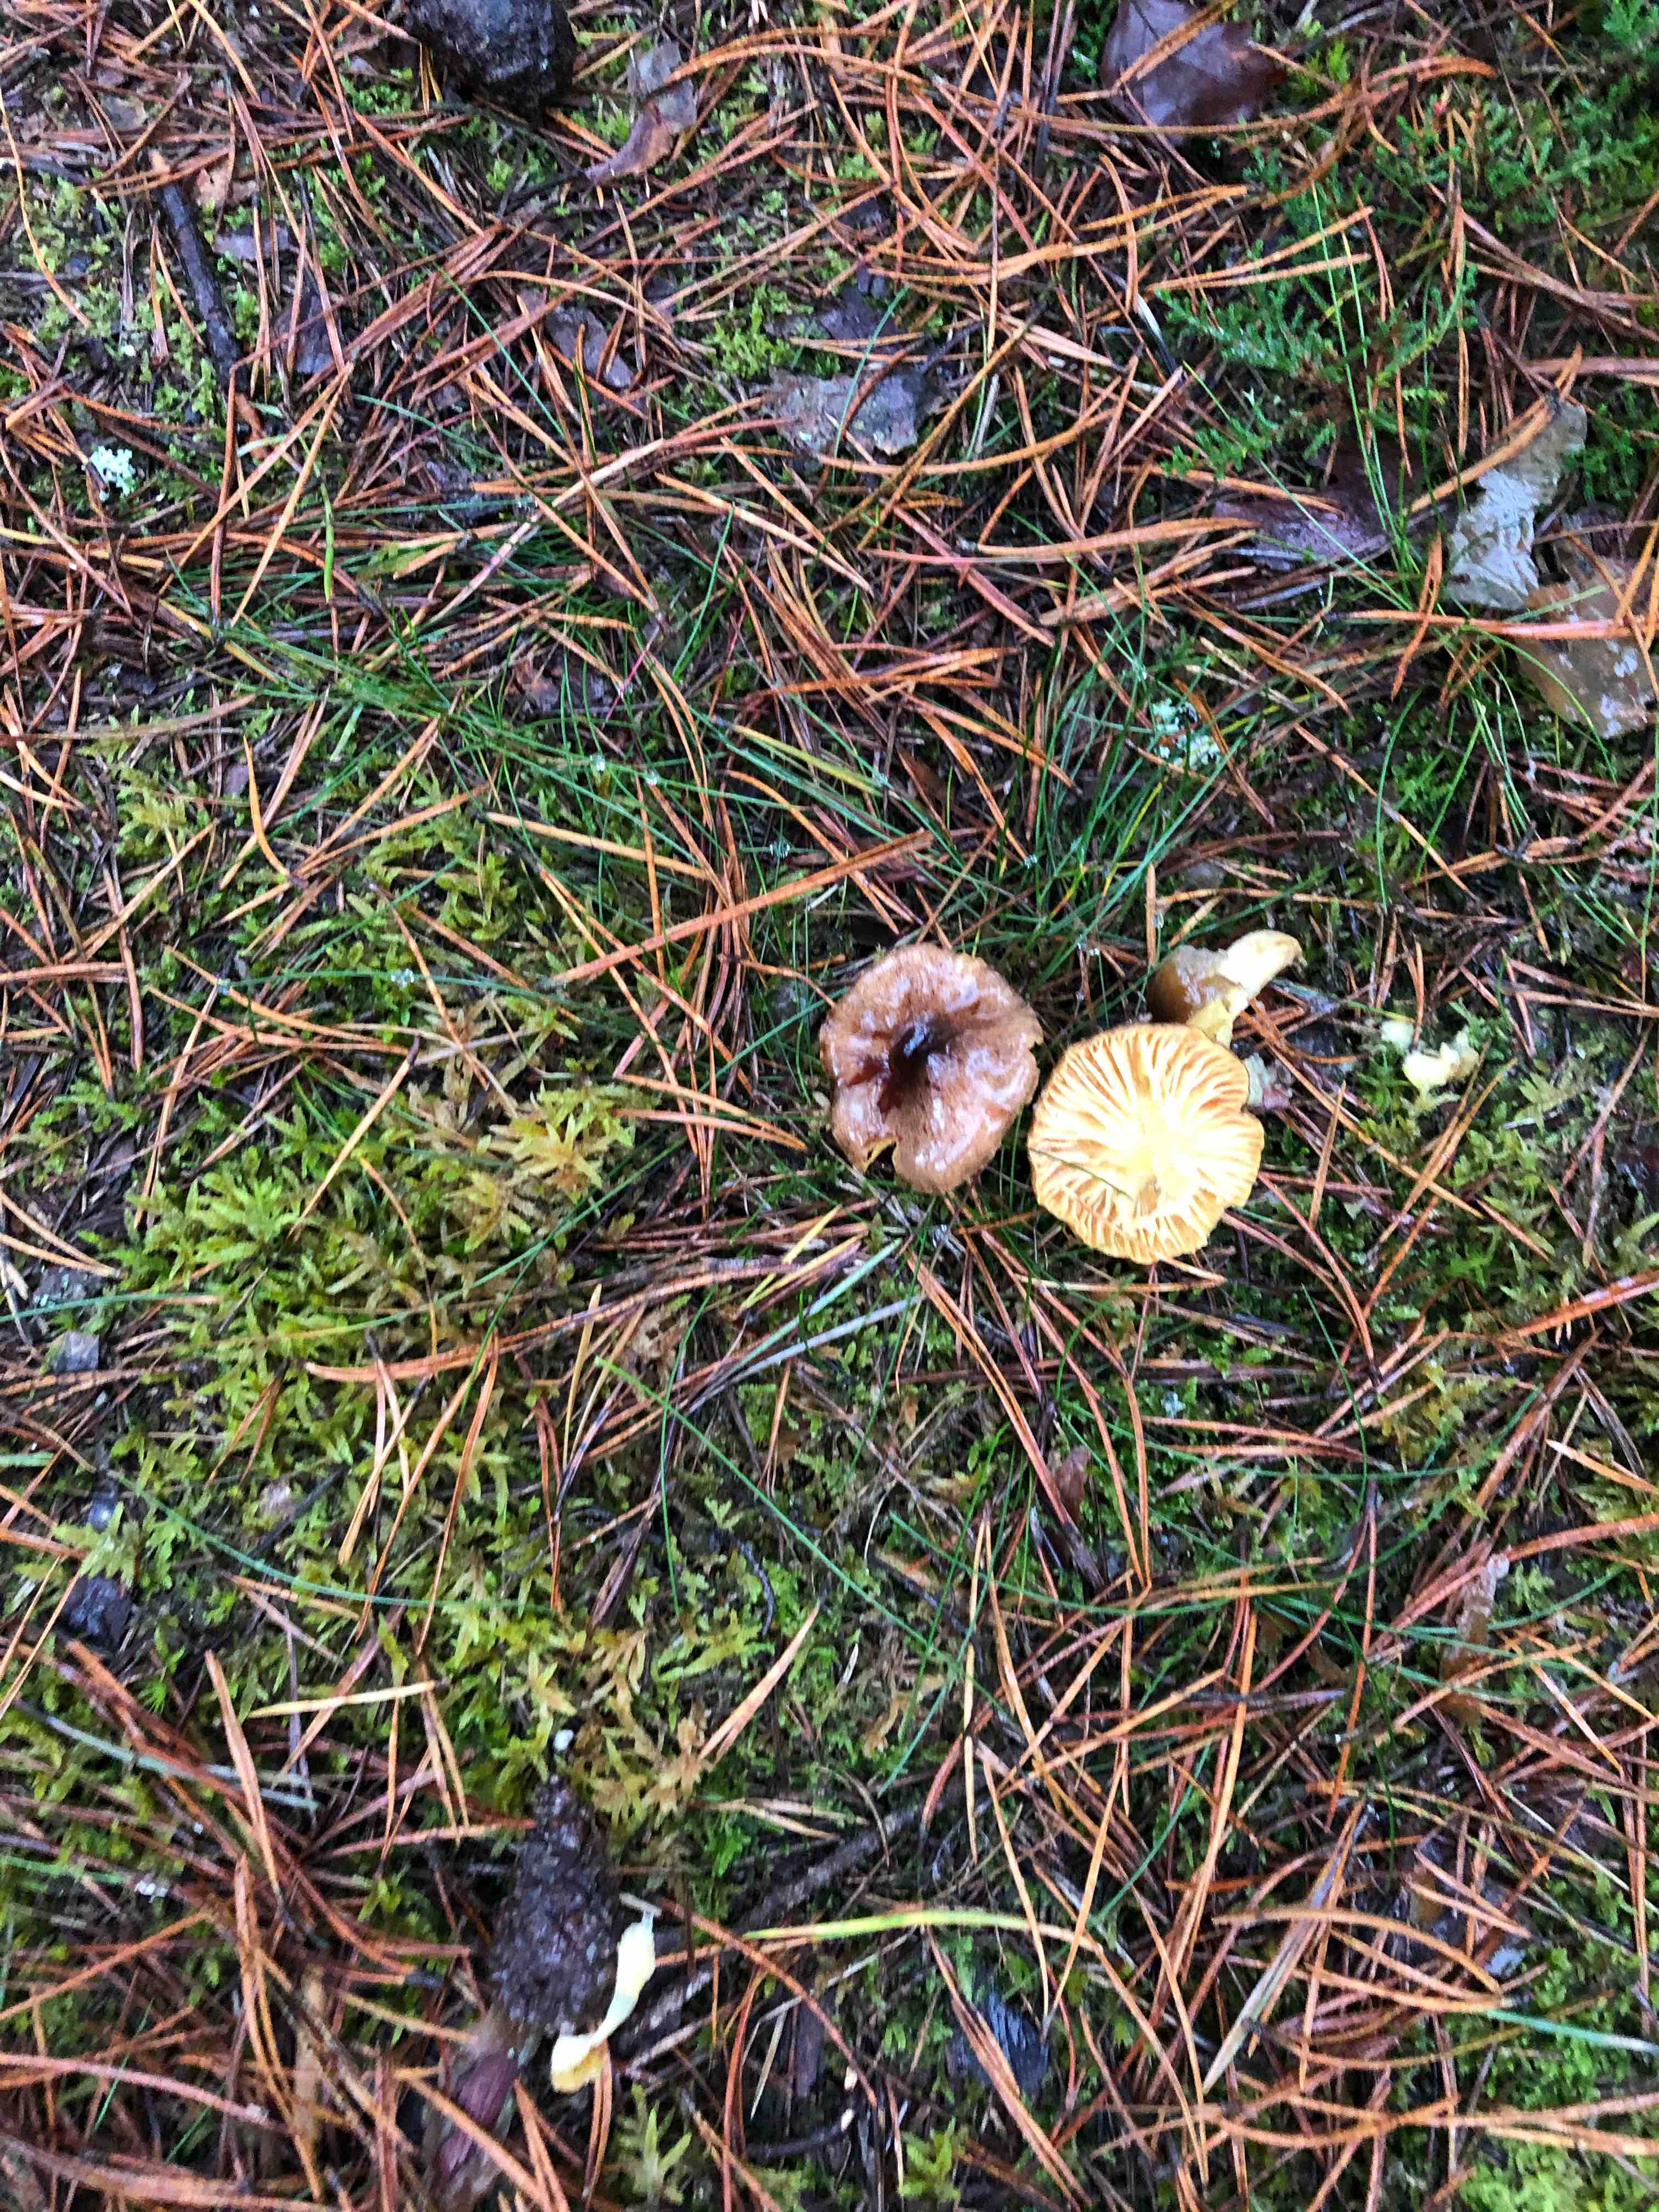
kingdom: Fungi
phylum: Basidiomycota
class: Agaricomycetes
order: Agaricales
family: Hygrophoraceae
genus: Hygrophorus
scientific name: Hygrophorus hypothejus
